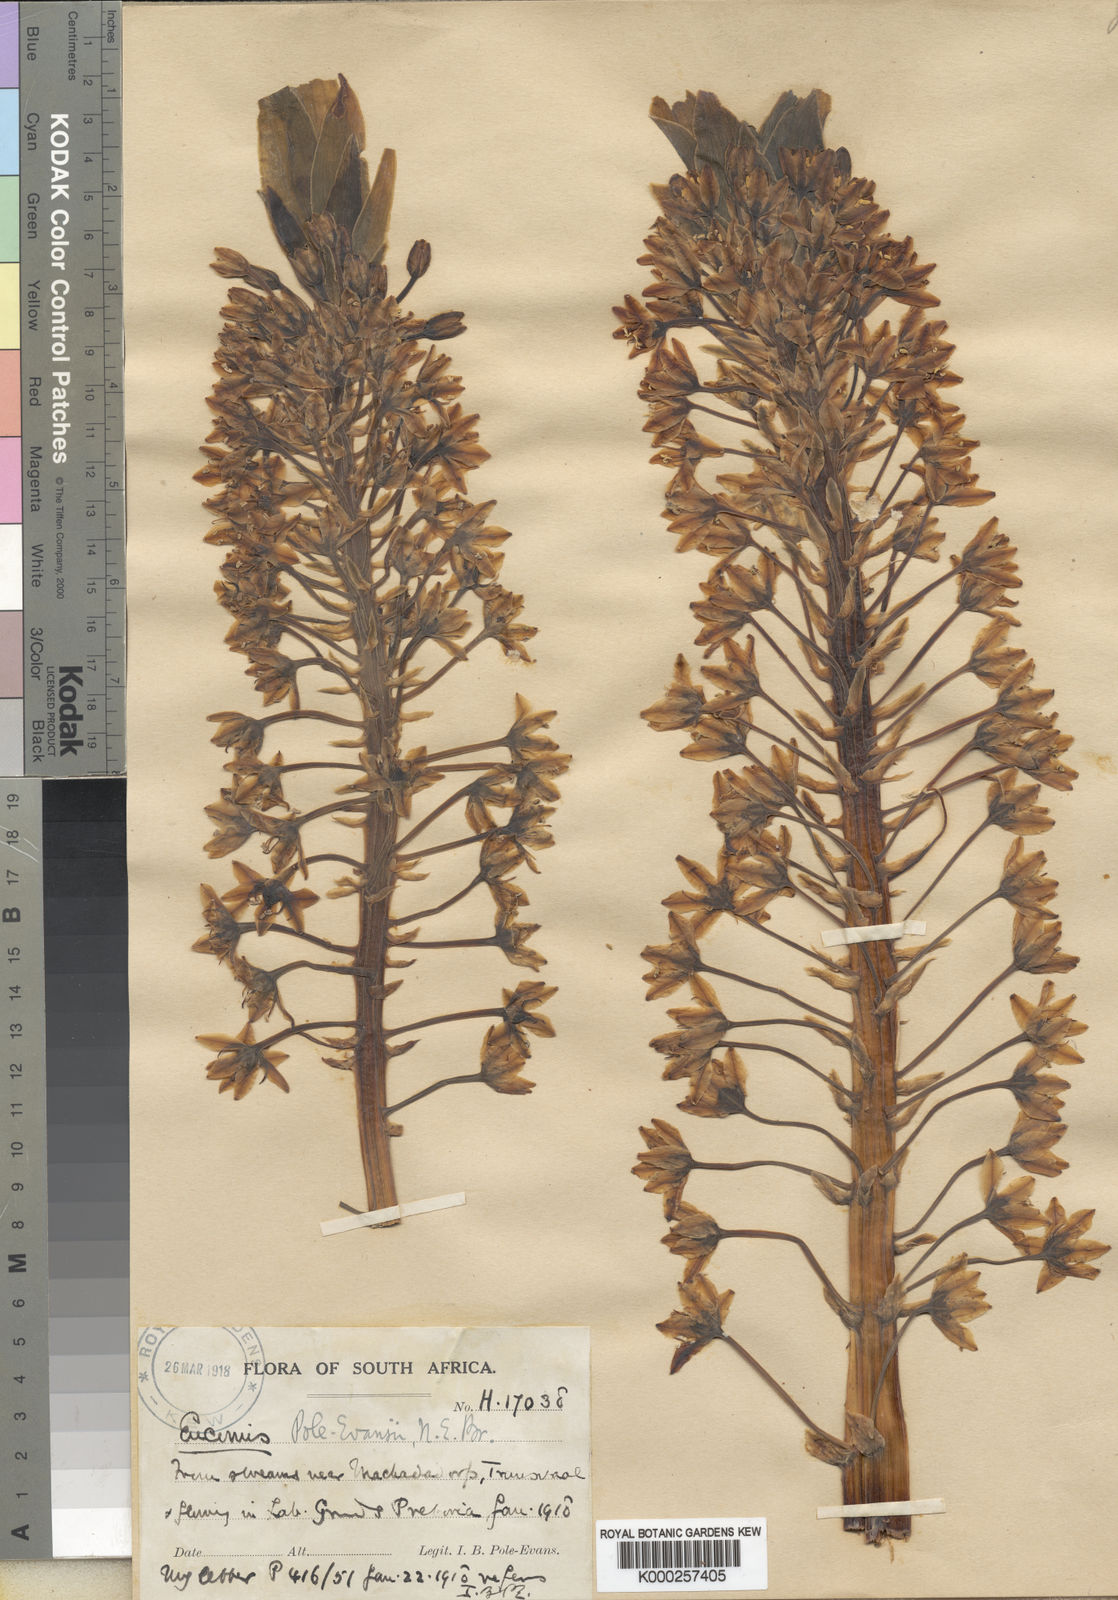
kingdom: Plantae
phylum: Tracheophyta
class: Liliopsida
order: Asparagales
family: Asparagaceae
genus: Eucomis
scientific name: Eucomis pallidiflora
